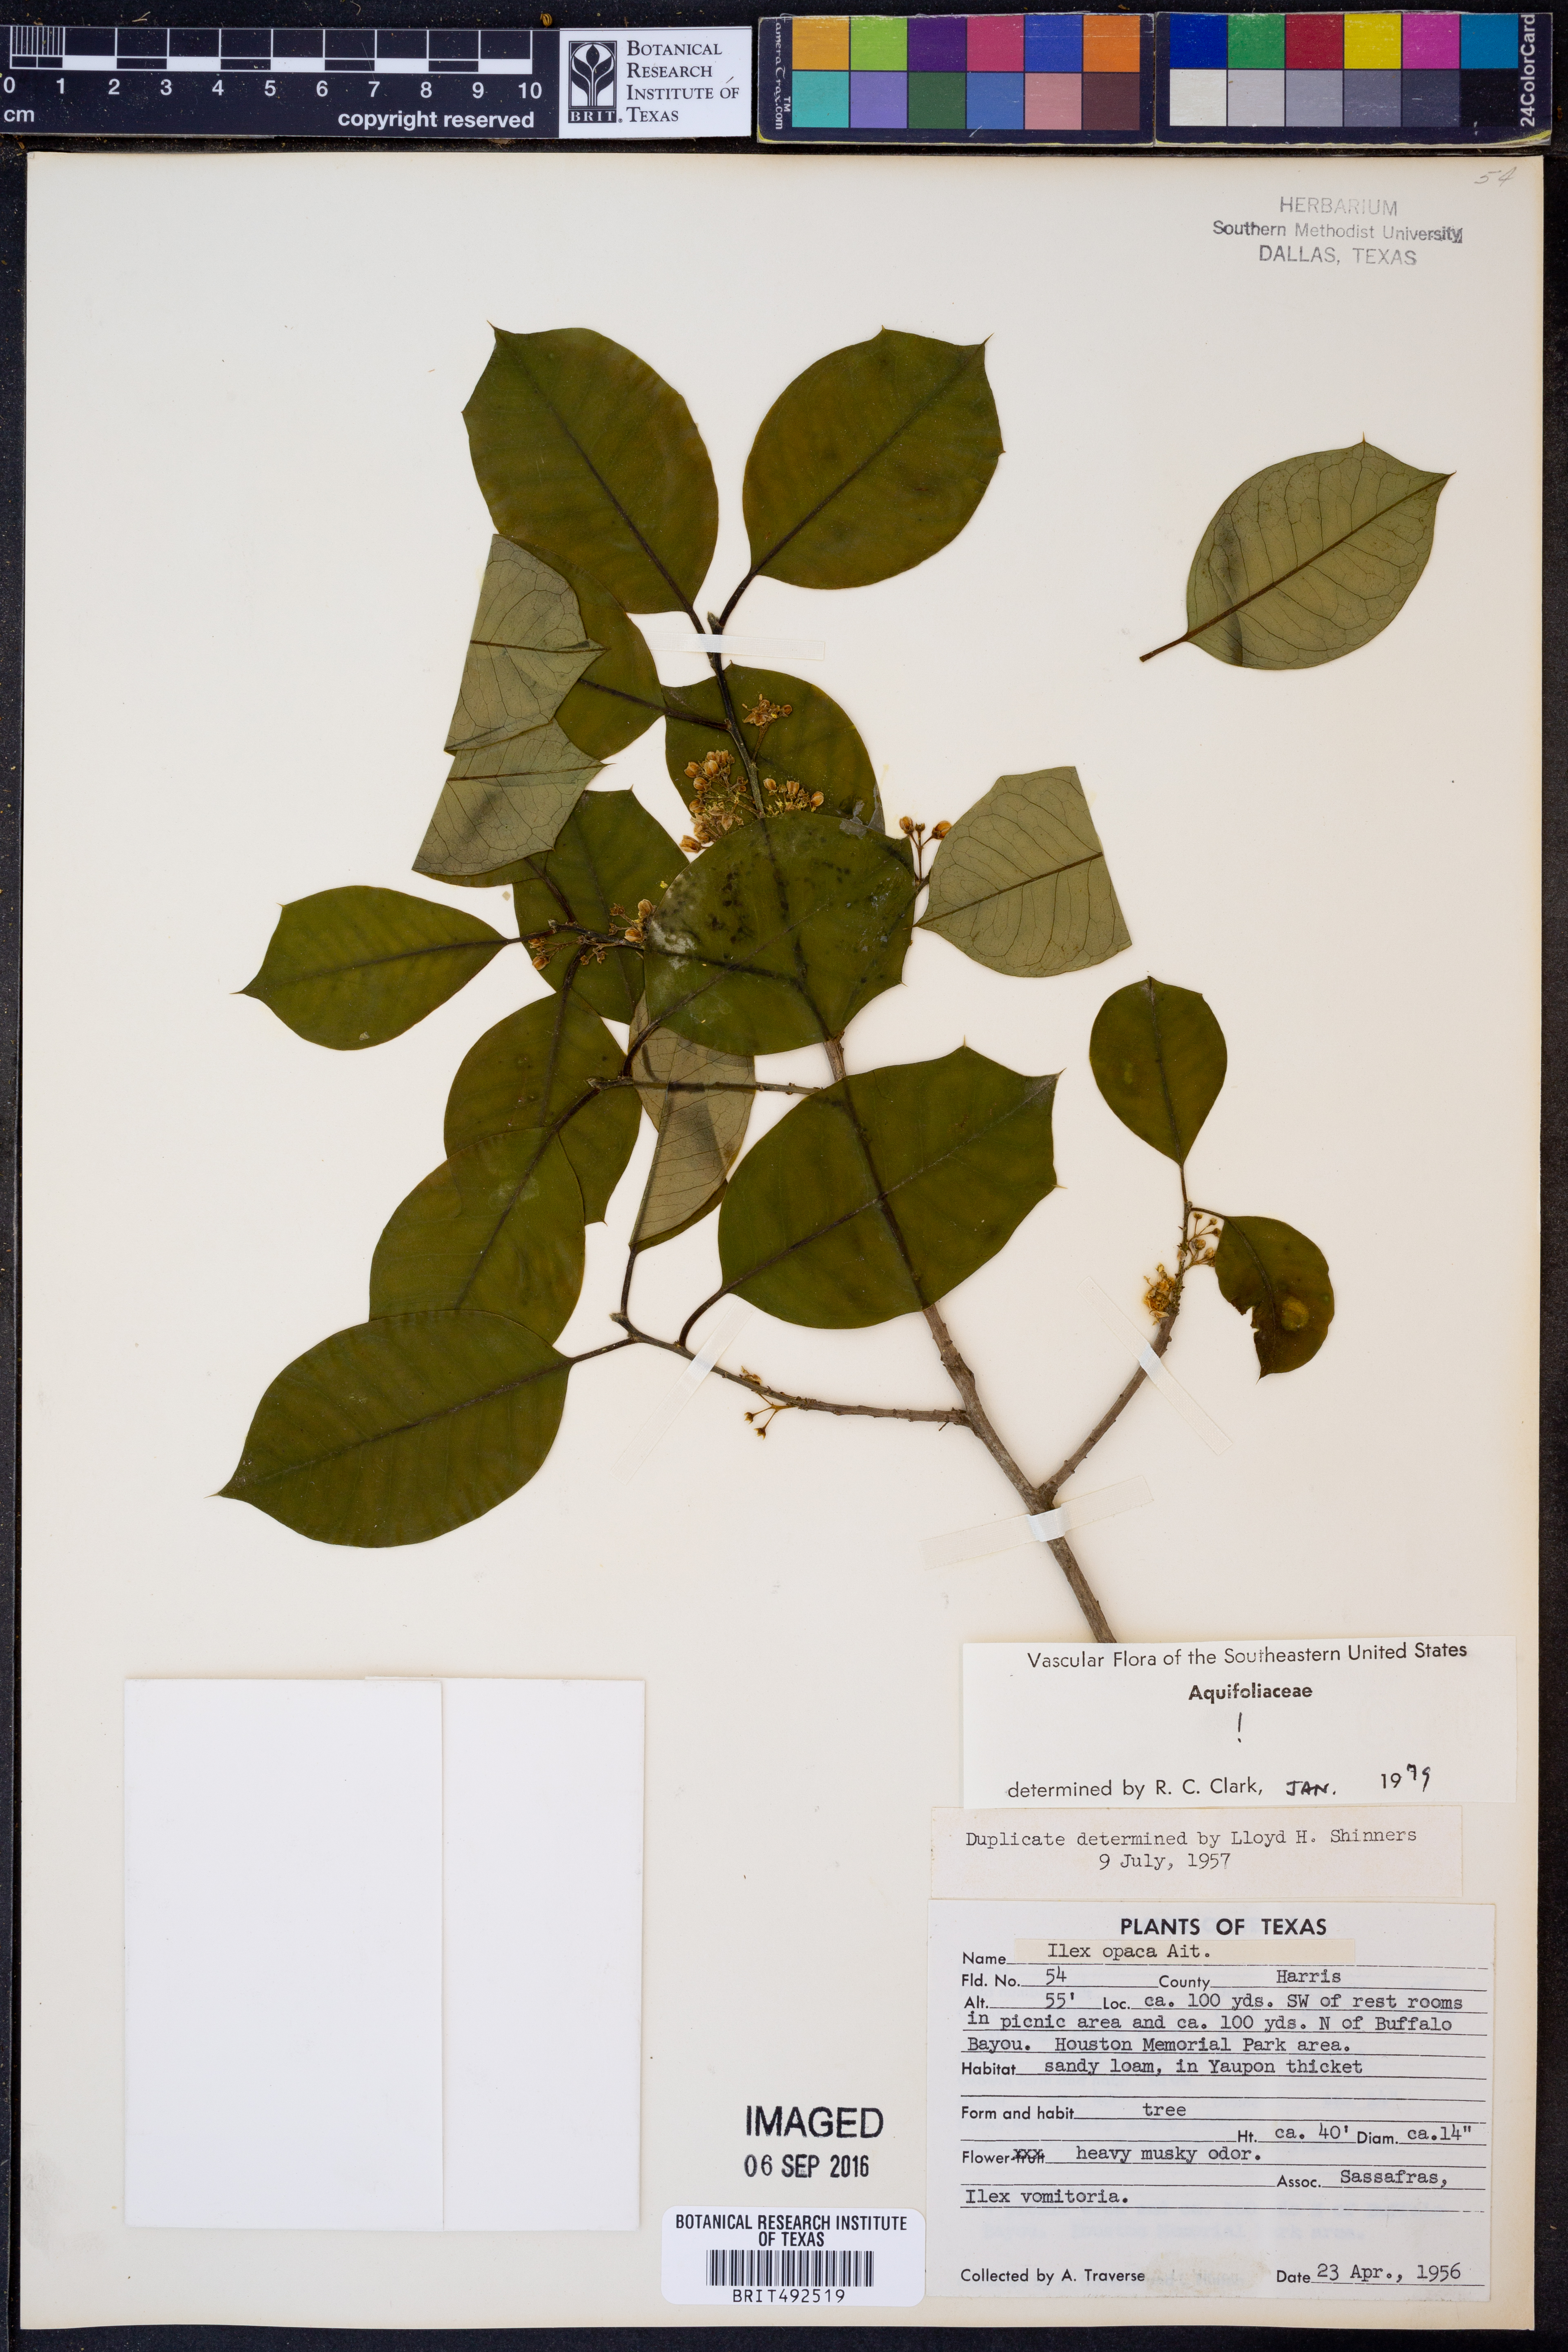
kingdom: Plantae
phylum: Tracheophyta
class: Magnoliopsida
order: Aquifoliales
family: Aquifoliaceae
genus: Ilex
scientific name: Ilex opaca
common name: American holly
